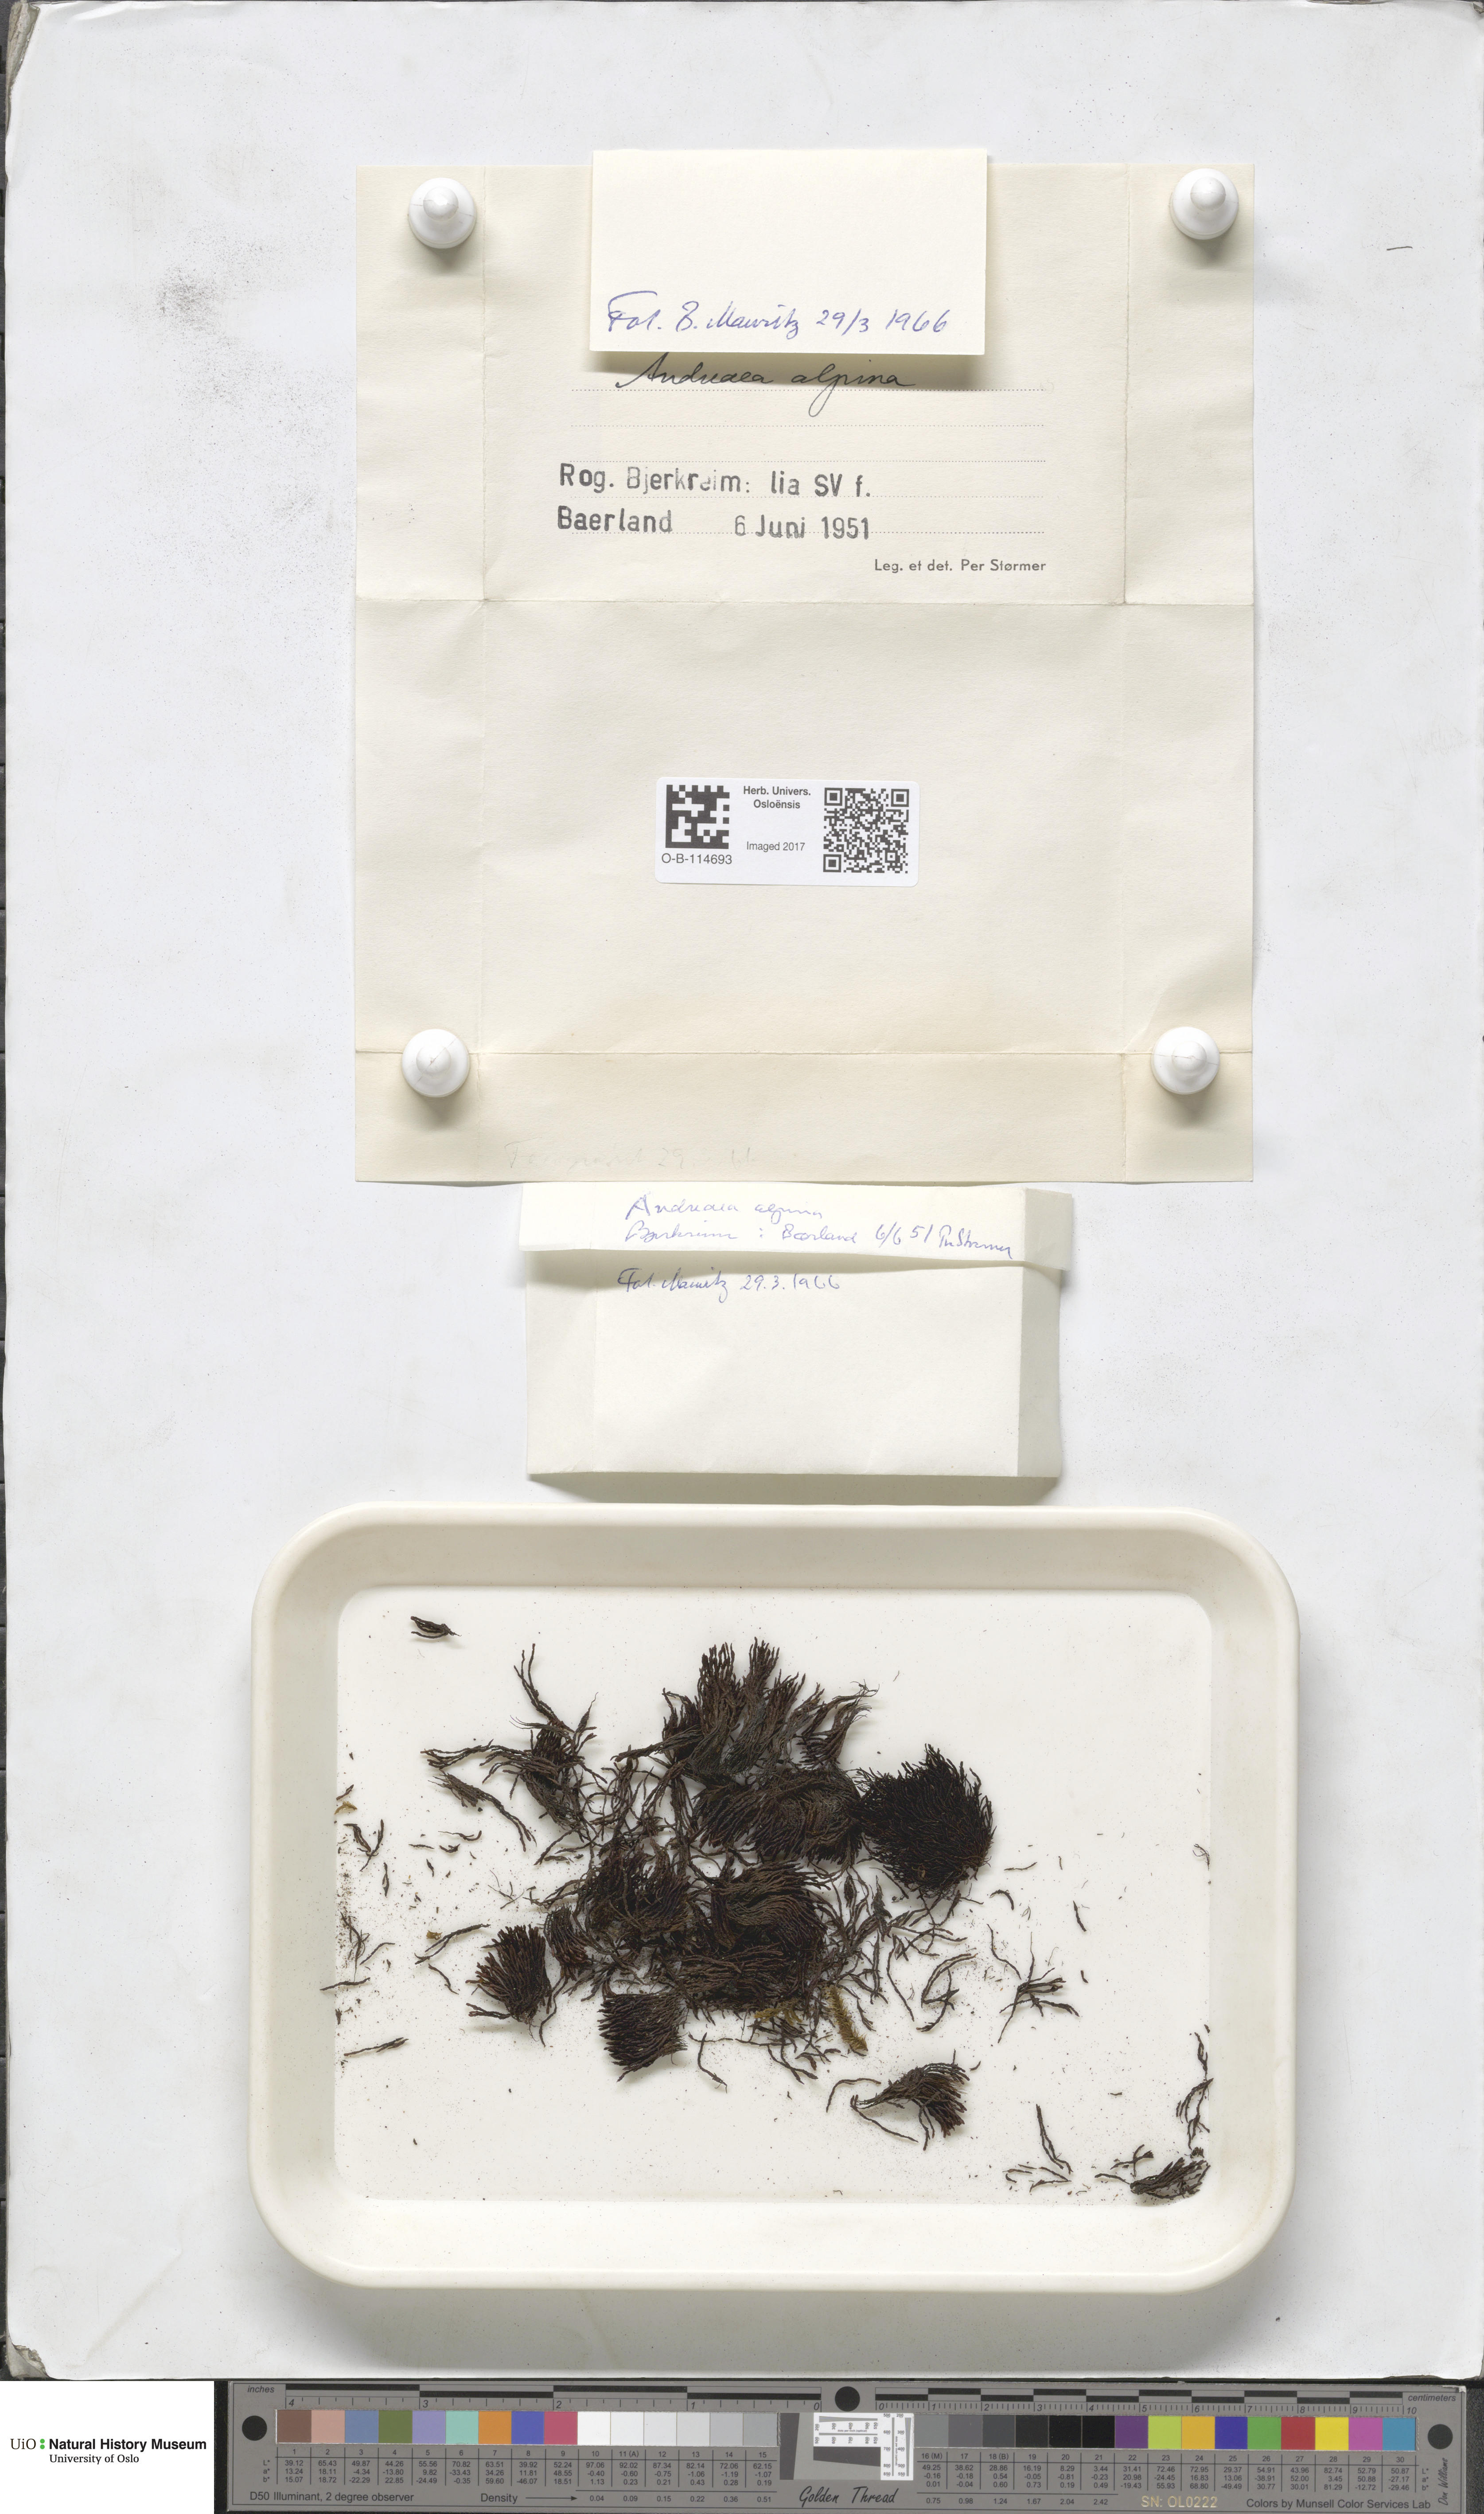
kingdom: Plantae
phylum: Bryophyta
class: Andreaeopsida
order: Andreaeales
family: Andreaeaceae
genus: Andreaea
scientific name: Andreaea hookeri
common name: Alpine rock-moss
